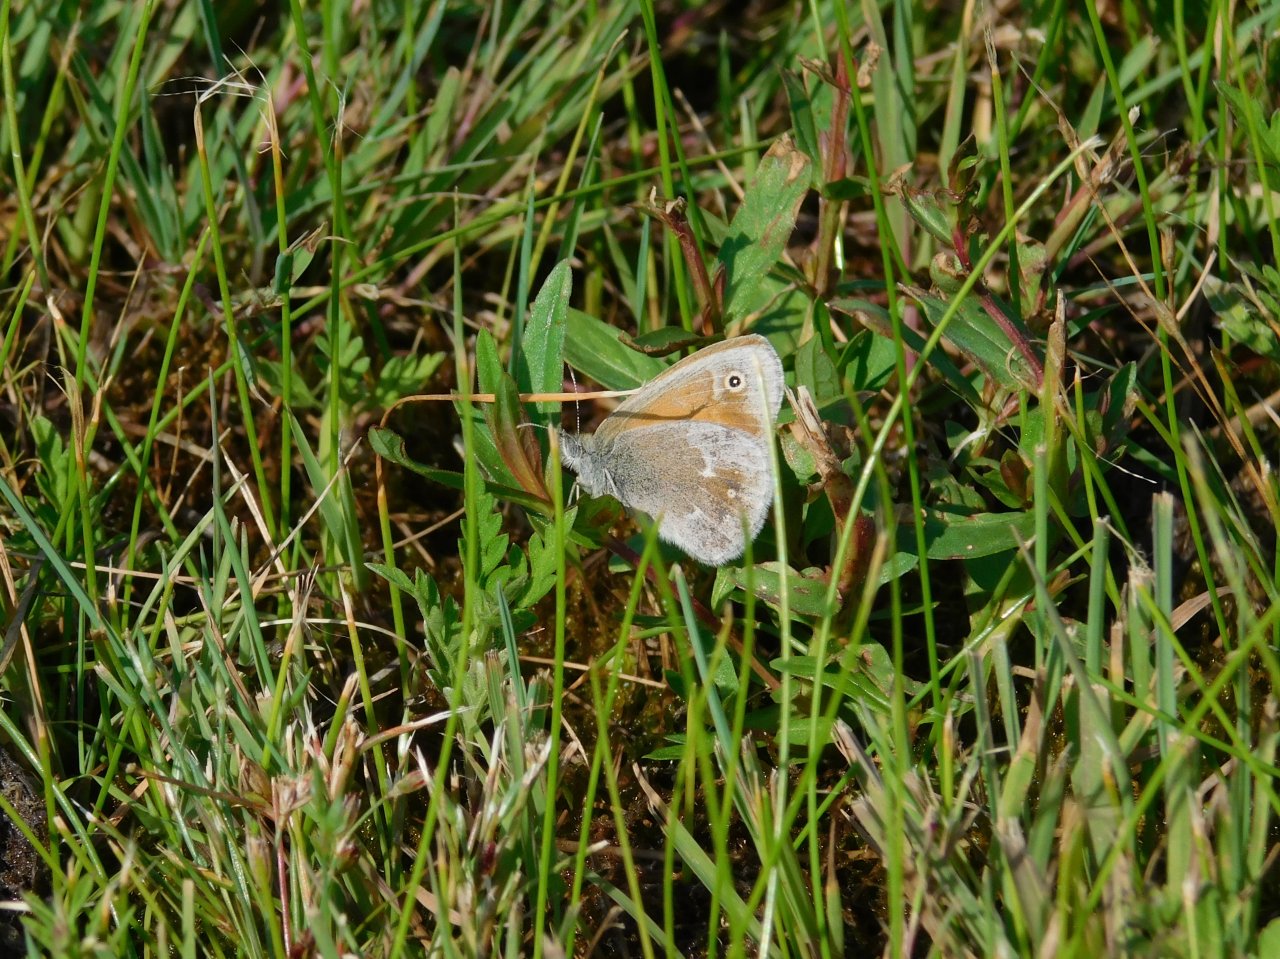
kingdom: Animalia
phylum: Arthropoda
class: Insecta
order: Lepidoptera
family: Nymphalidae
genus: Coenonympha
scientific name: Coenonympha tullia
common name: Large Heath
